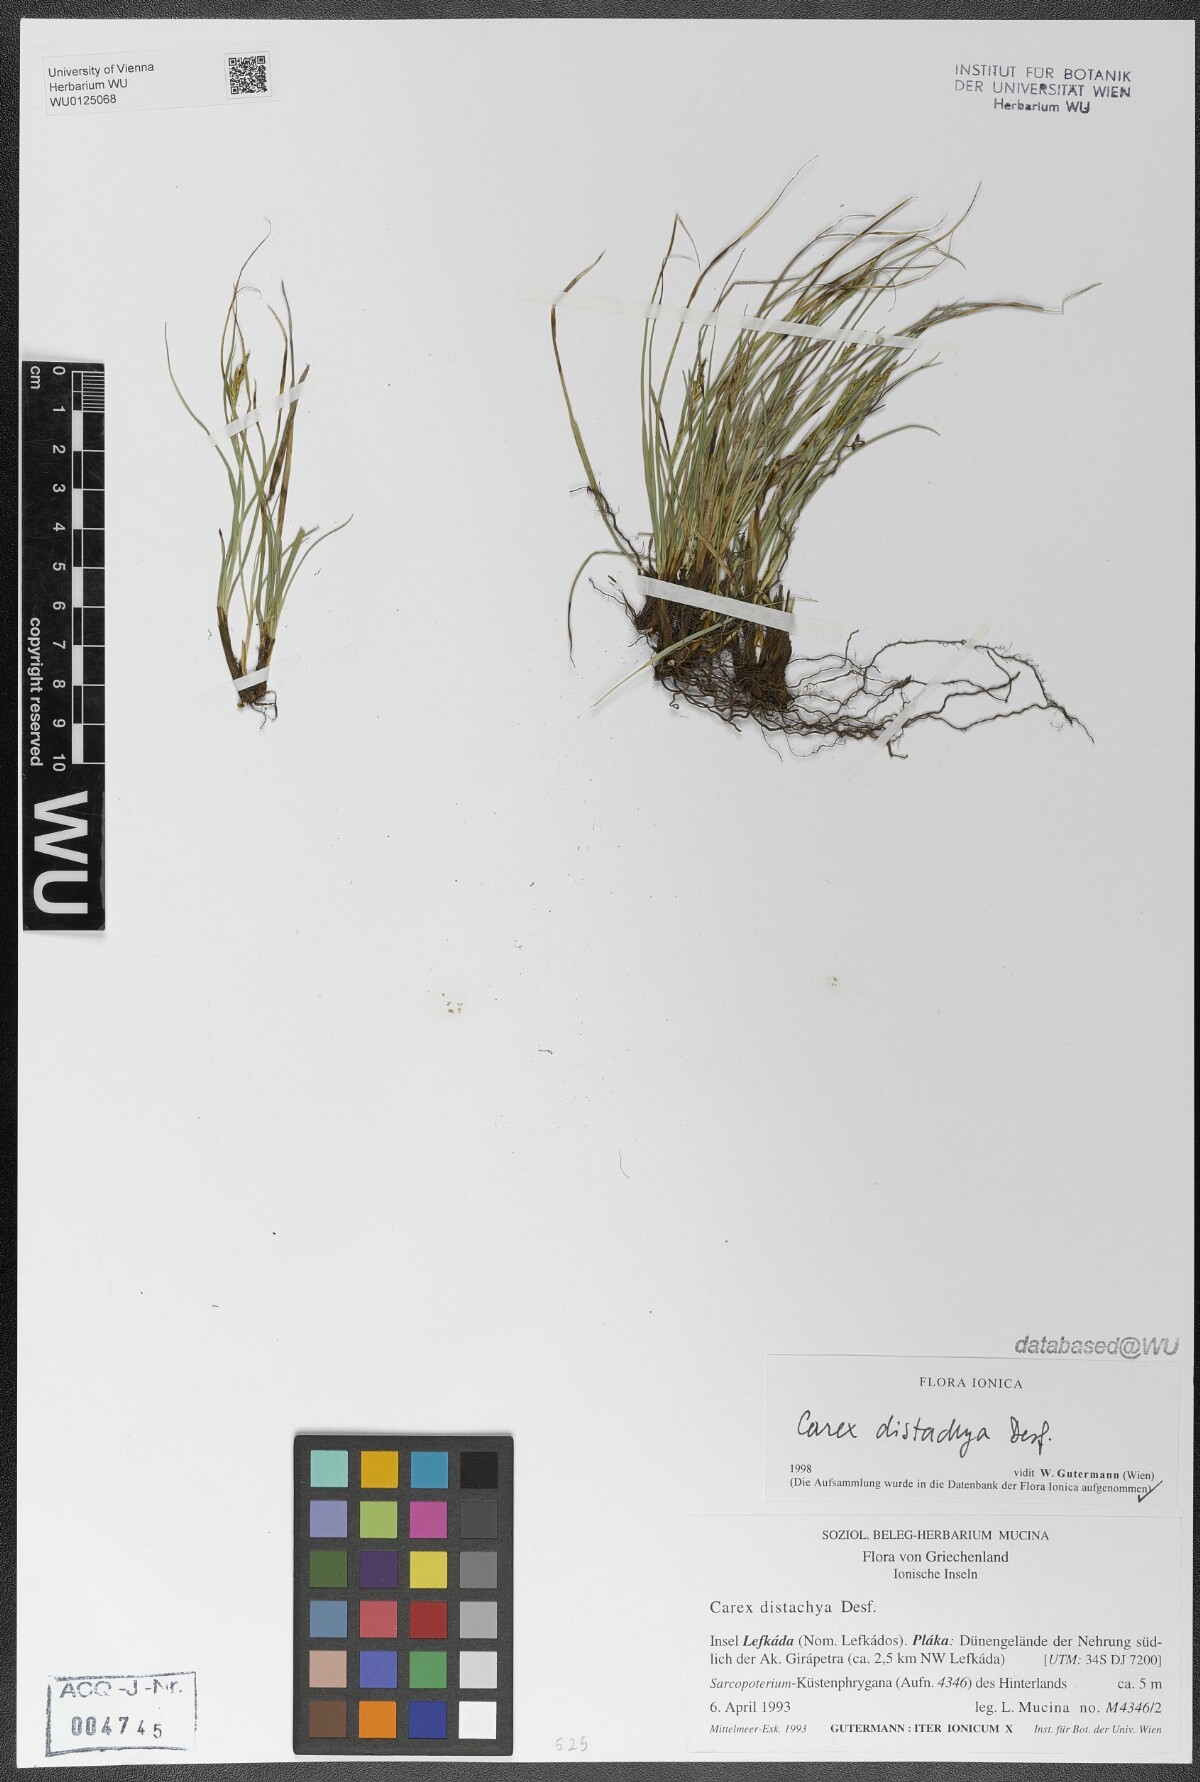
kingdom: Plantae
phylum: Tracheophyta
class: Liliopsida
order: Poales
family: Cyperaceae
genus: Carex
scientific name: Carex distachya
